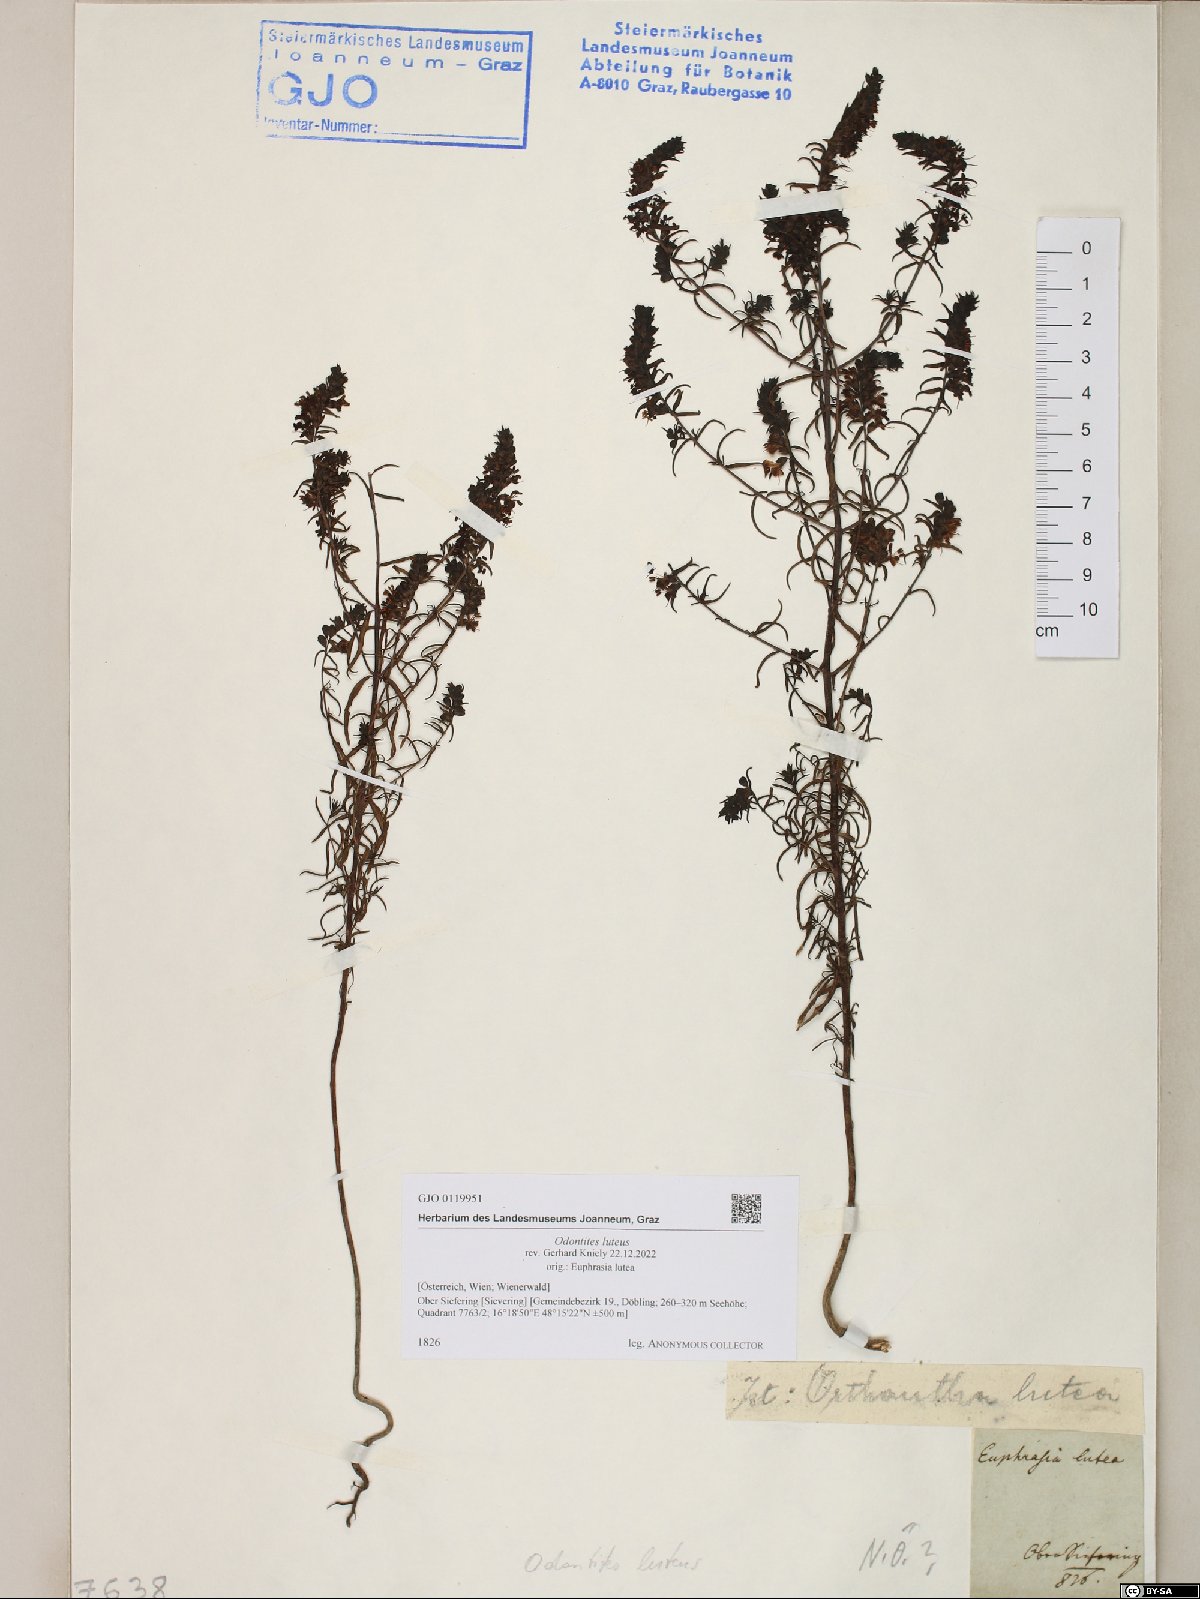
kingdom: Plantae
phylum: Tracheophyta
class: Magnoliopsida
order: Lamiales
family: Orobanchaceae
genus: Odontites
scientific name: Odontites luteus
